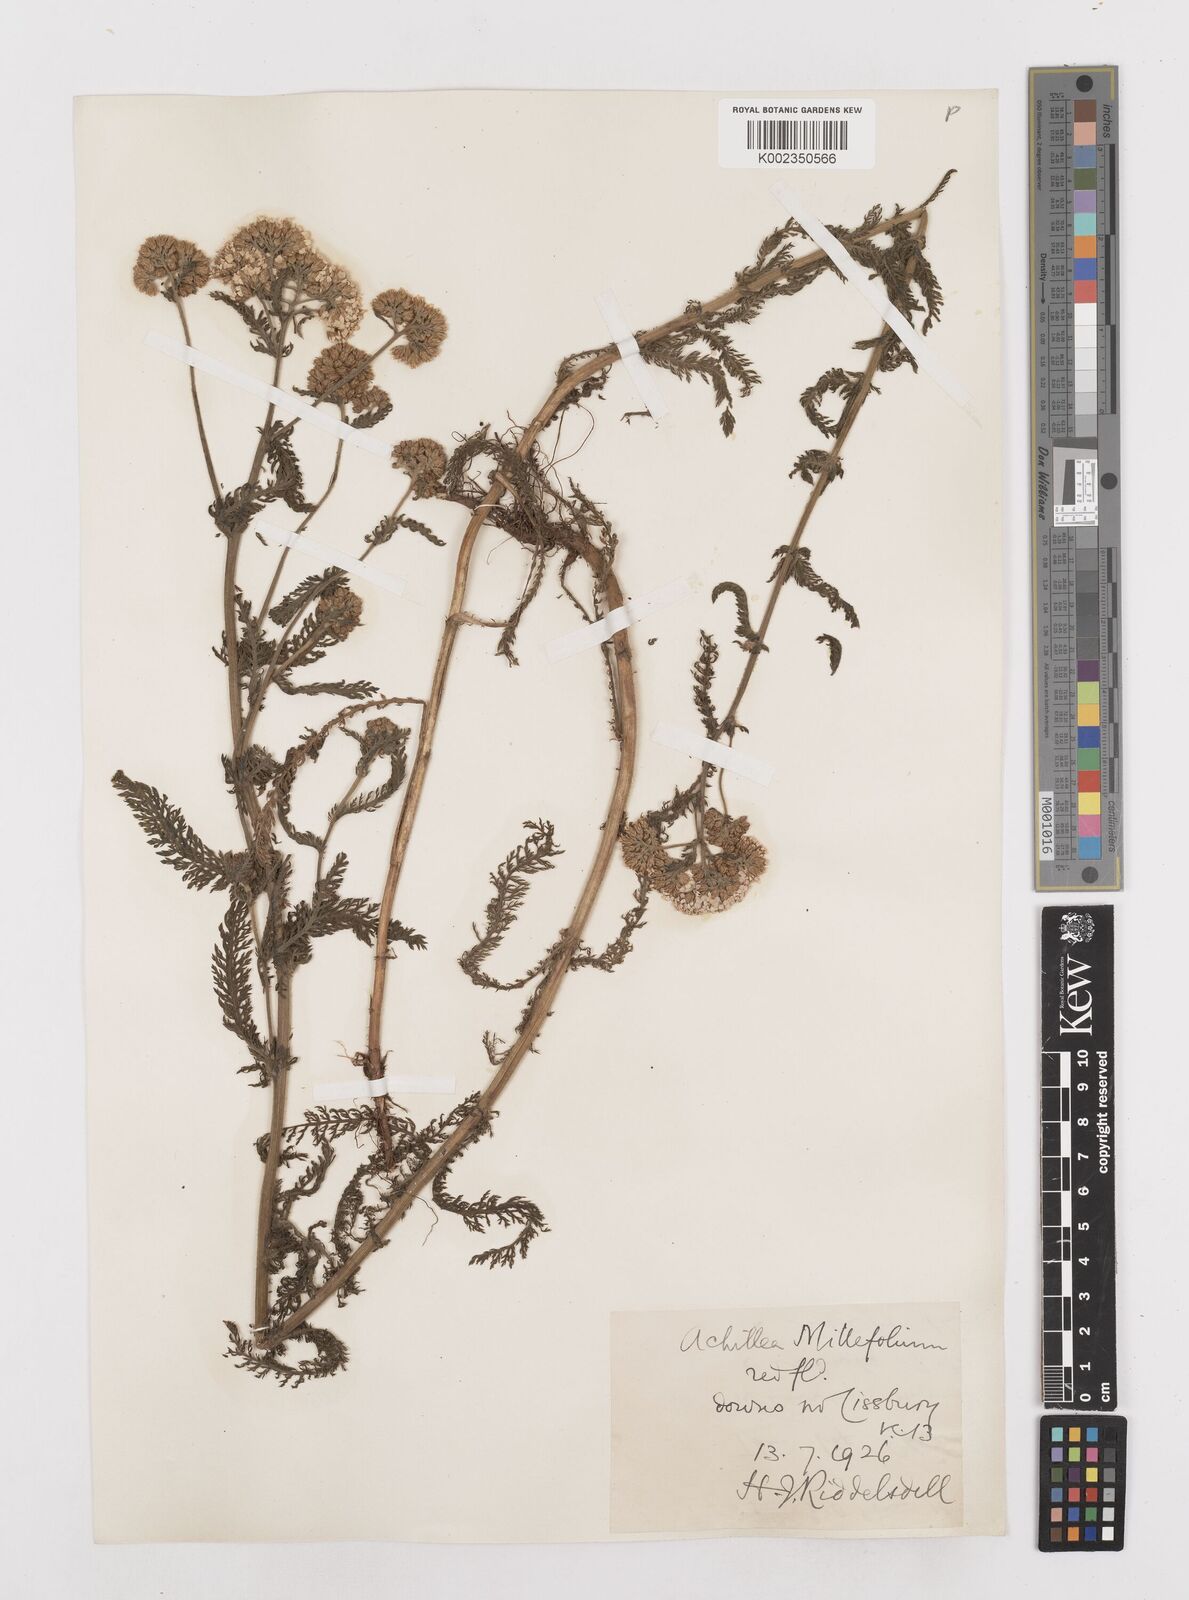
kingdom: Plantae
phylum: Tracheophyta
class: Magnoliopsida
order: Asterales
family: Asteraceae
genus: Achillea
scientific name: Achillea ptarmica
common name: Sneezeweed
